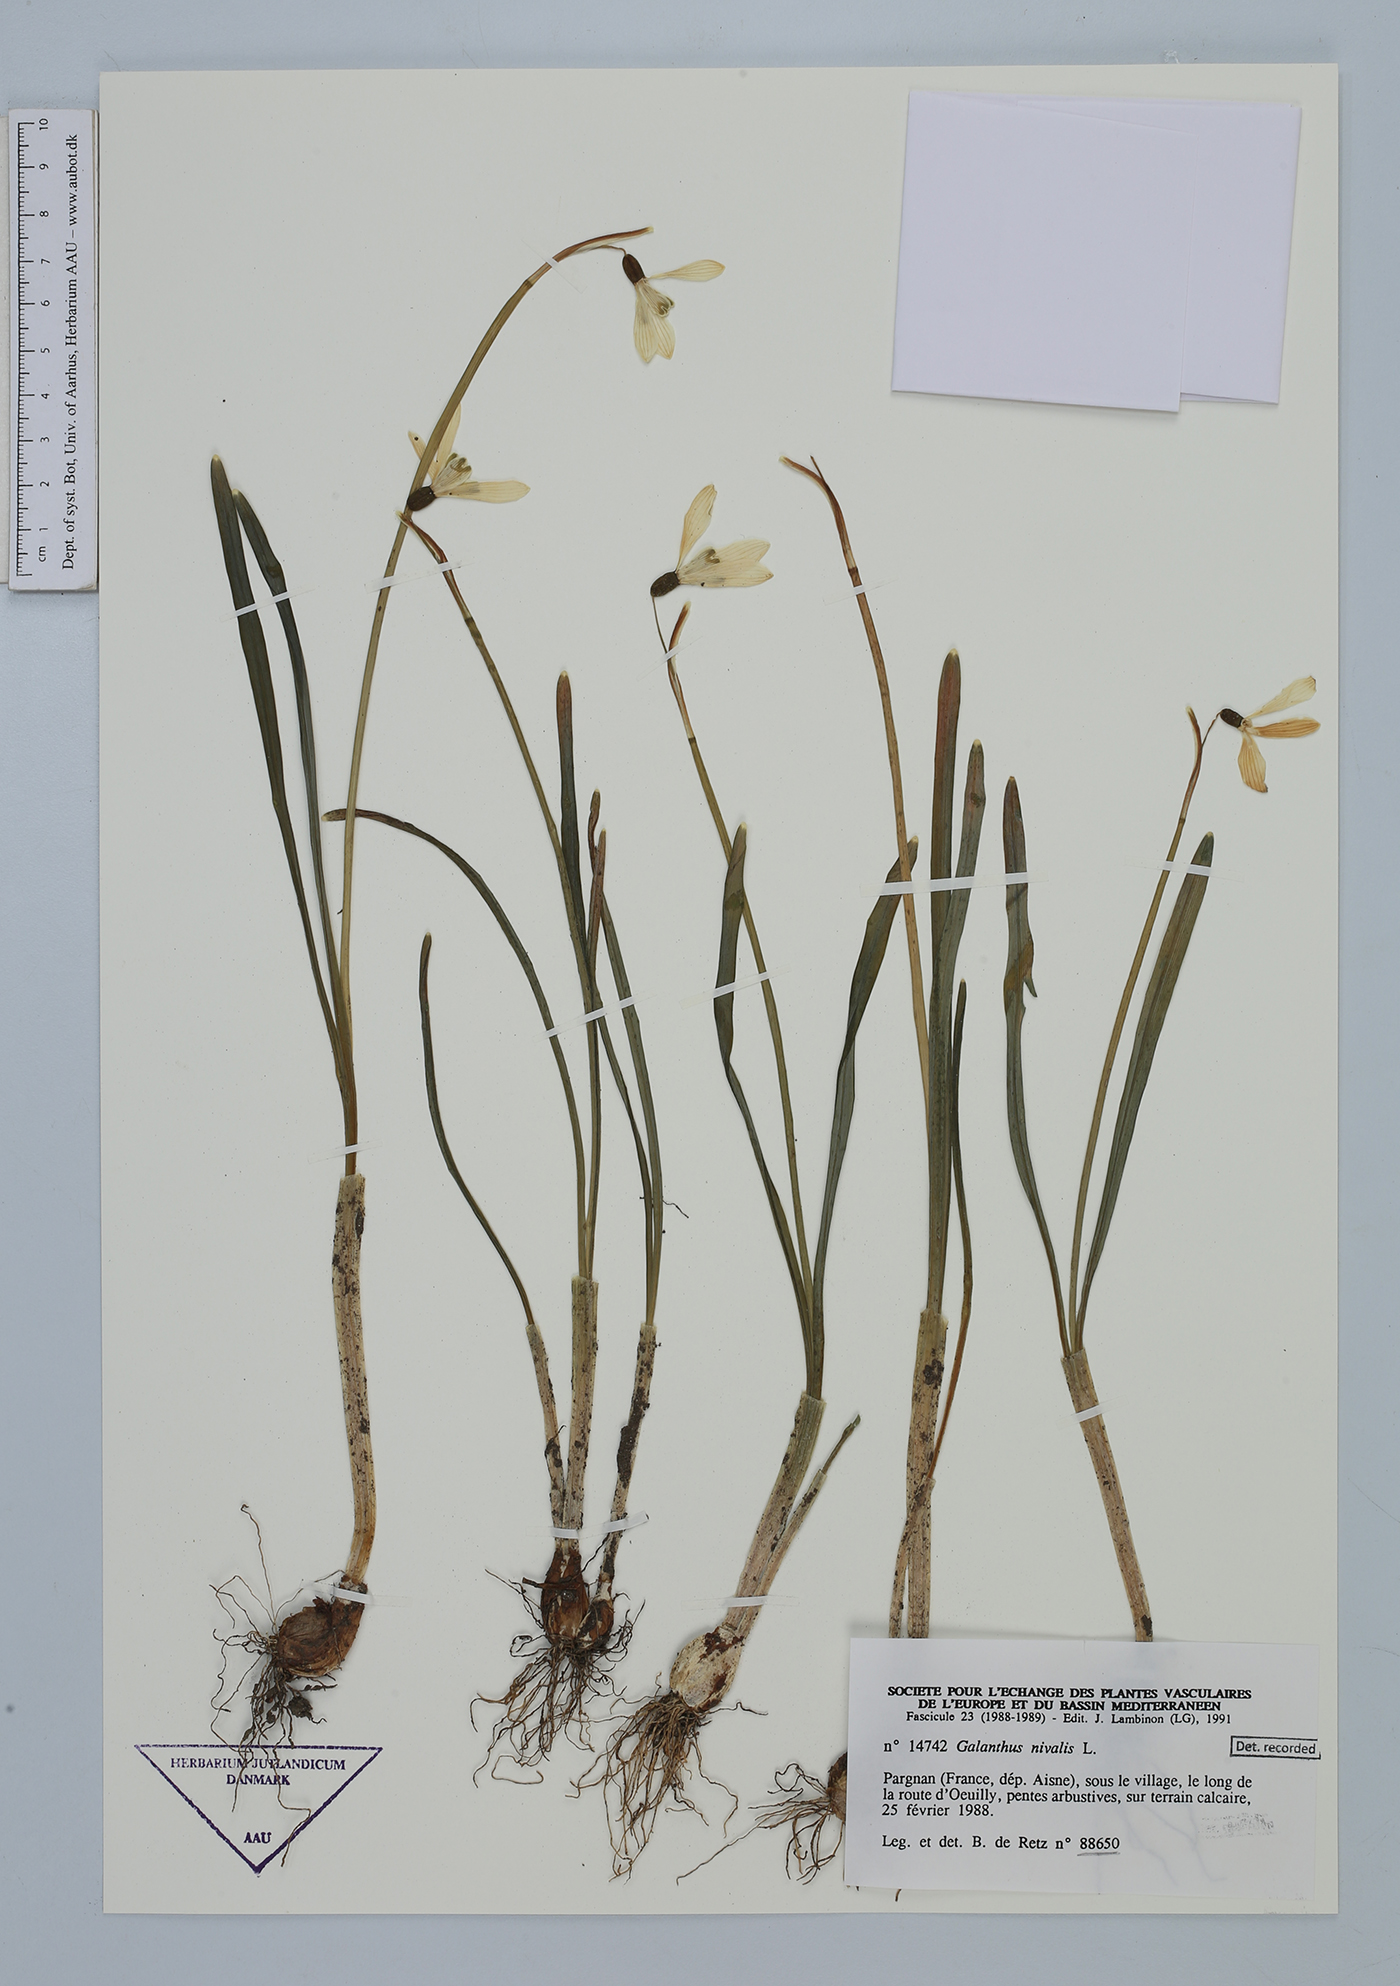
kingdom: Plantae
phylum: Tracheophyta
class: Liliopsida
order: Asparagales
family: Amaryllidaceae
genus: Galanthus
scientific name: Galanthus nivalis
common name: Snowdrop
